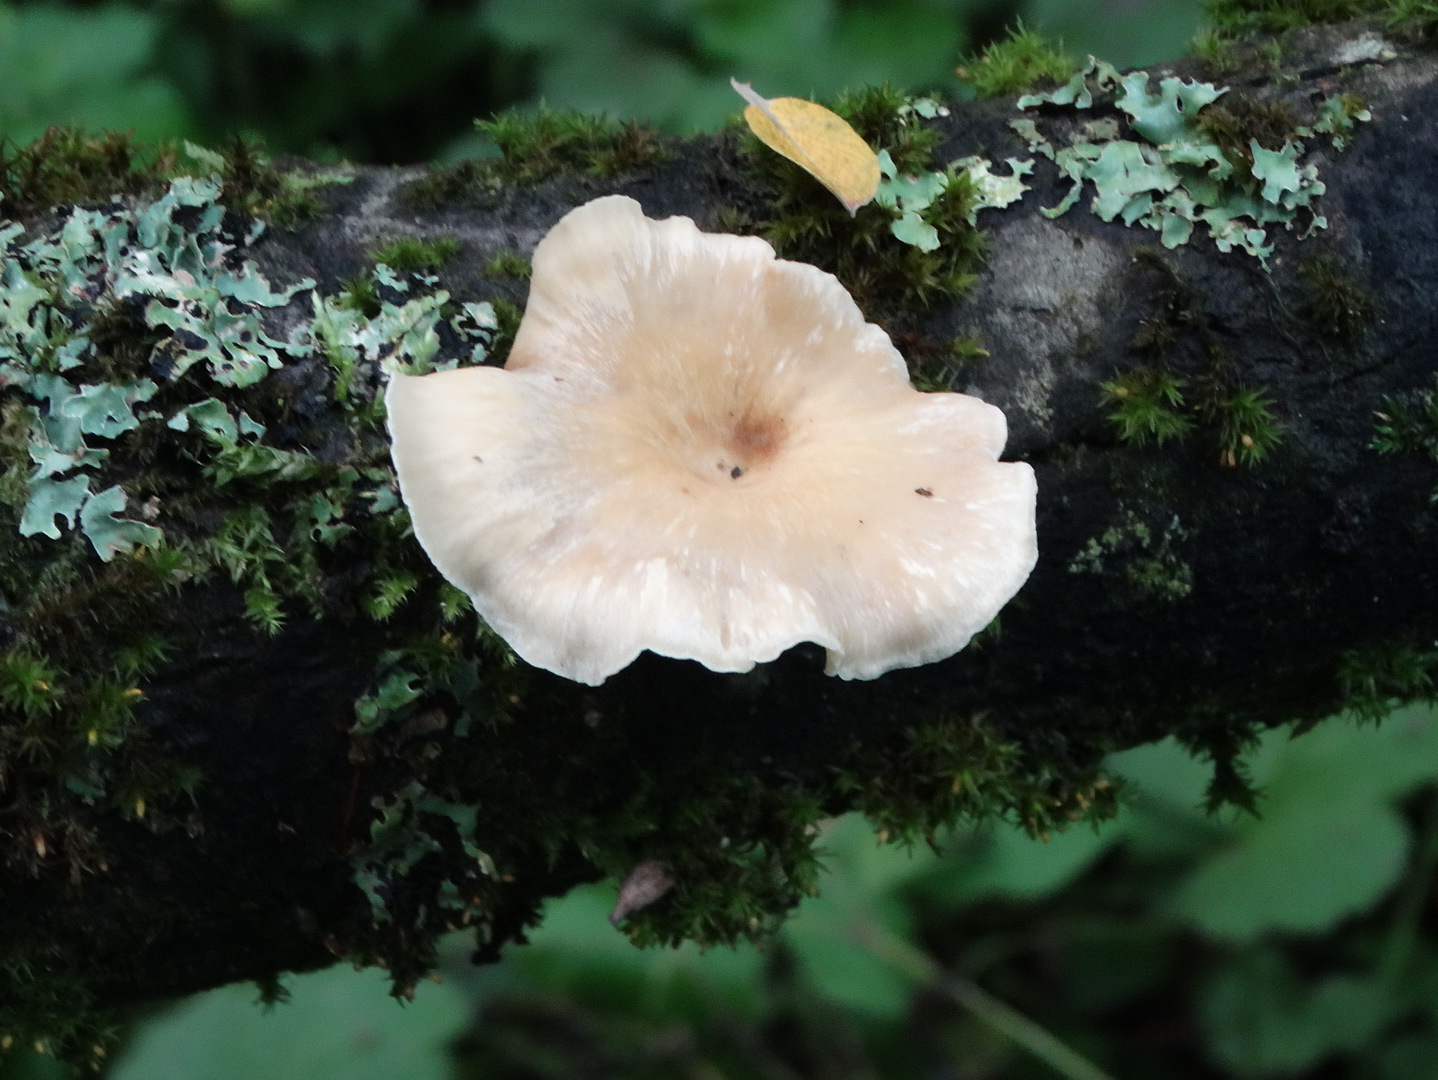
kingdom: Fungi
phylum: Basidiomycota
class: Agaricomycetes
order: Polyporales
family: Polyporaceae
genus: Cerioporus
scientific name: Cerioporus varius
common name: foranderlig stilkporesvamp
